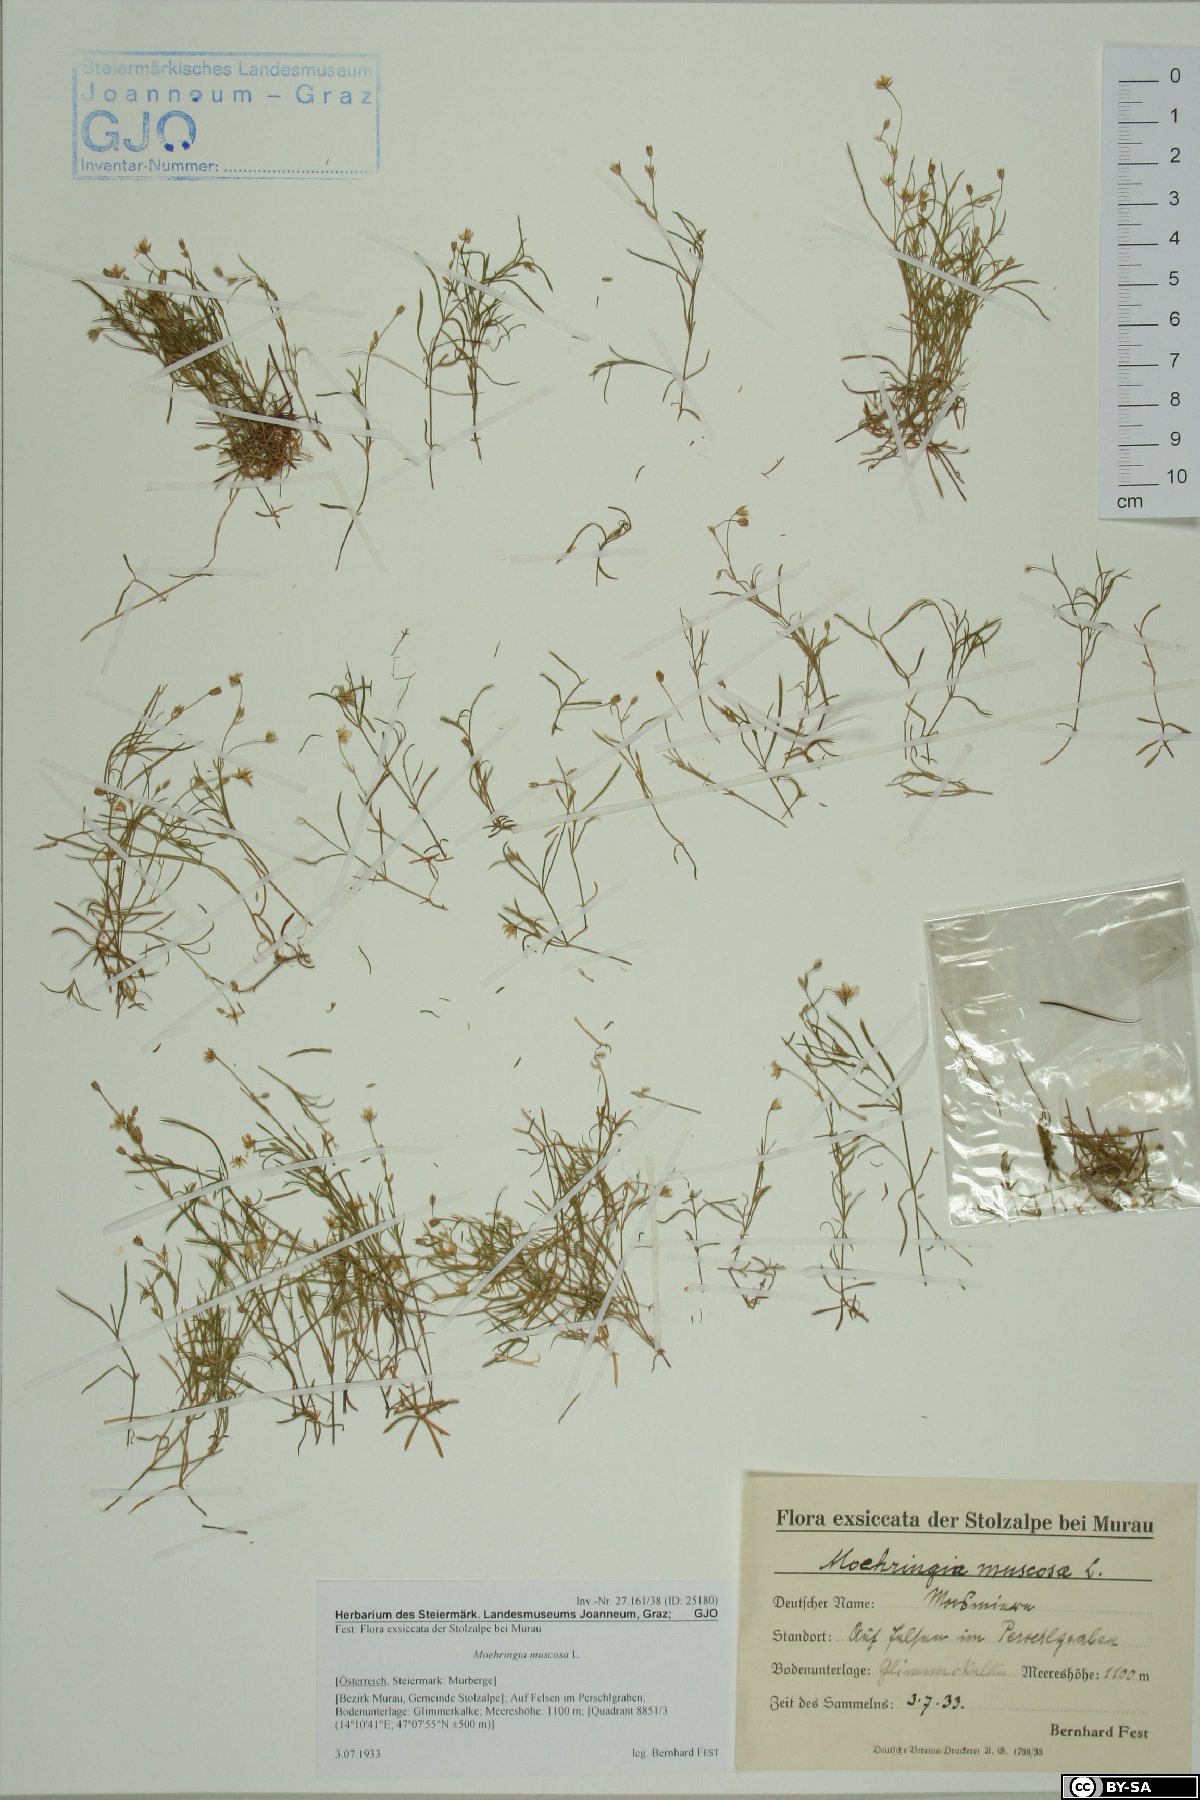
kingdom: Plantae
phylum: Tracheophyta
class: Magnoliopsida
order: Caryophyllales
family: Caryophyllaceae
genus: Moehringia
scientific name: Moehringia muscosa
